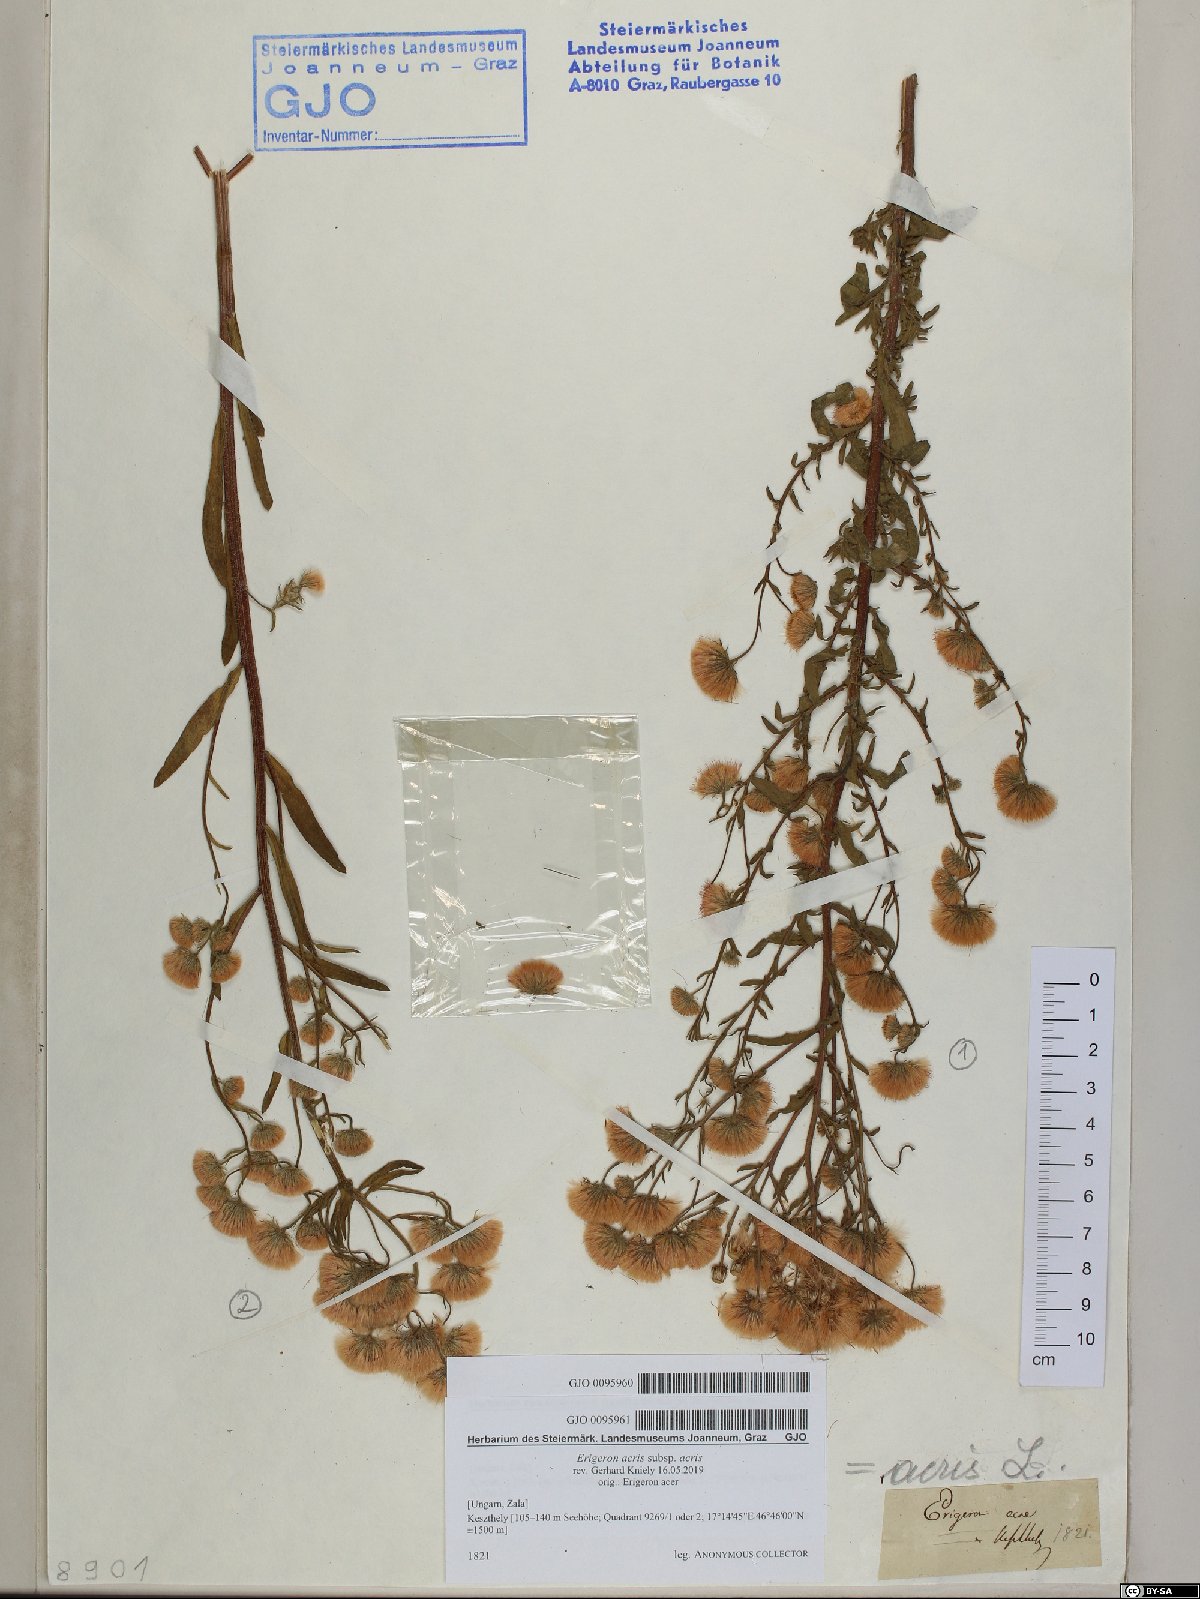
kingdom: Plantae
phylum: Tracheophyta
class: Magnoliopsida
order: Asterales
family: Asteraceae
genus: Erigeron
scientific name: Erigeron acris
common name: Blue fleabane
